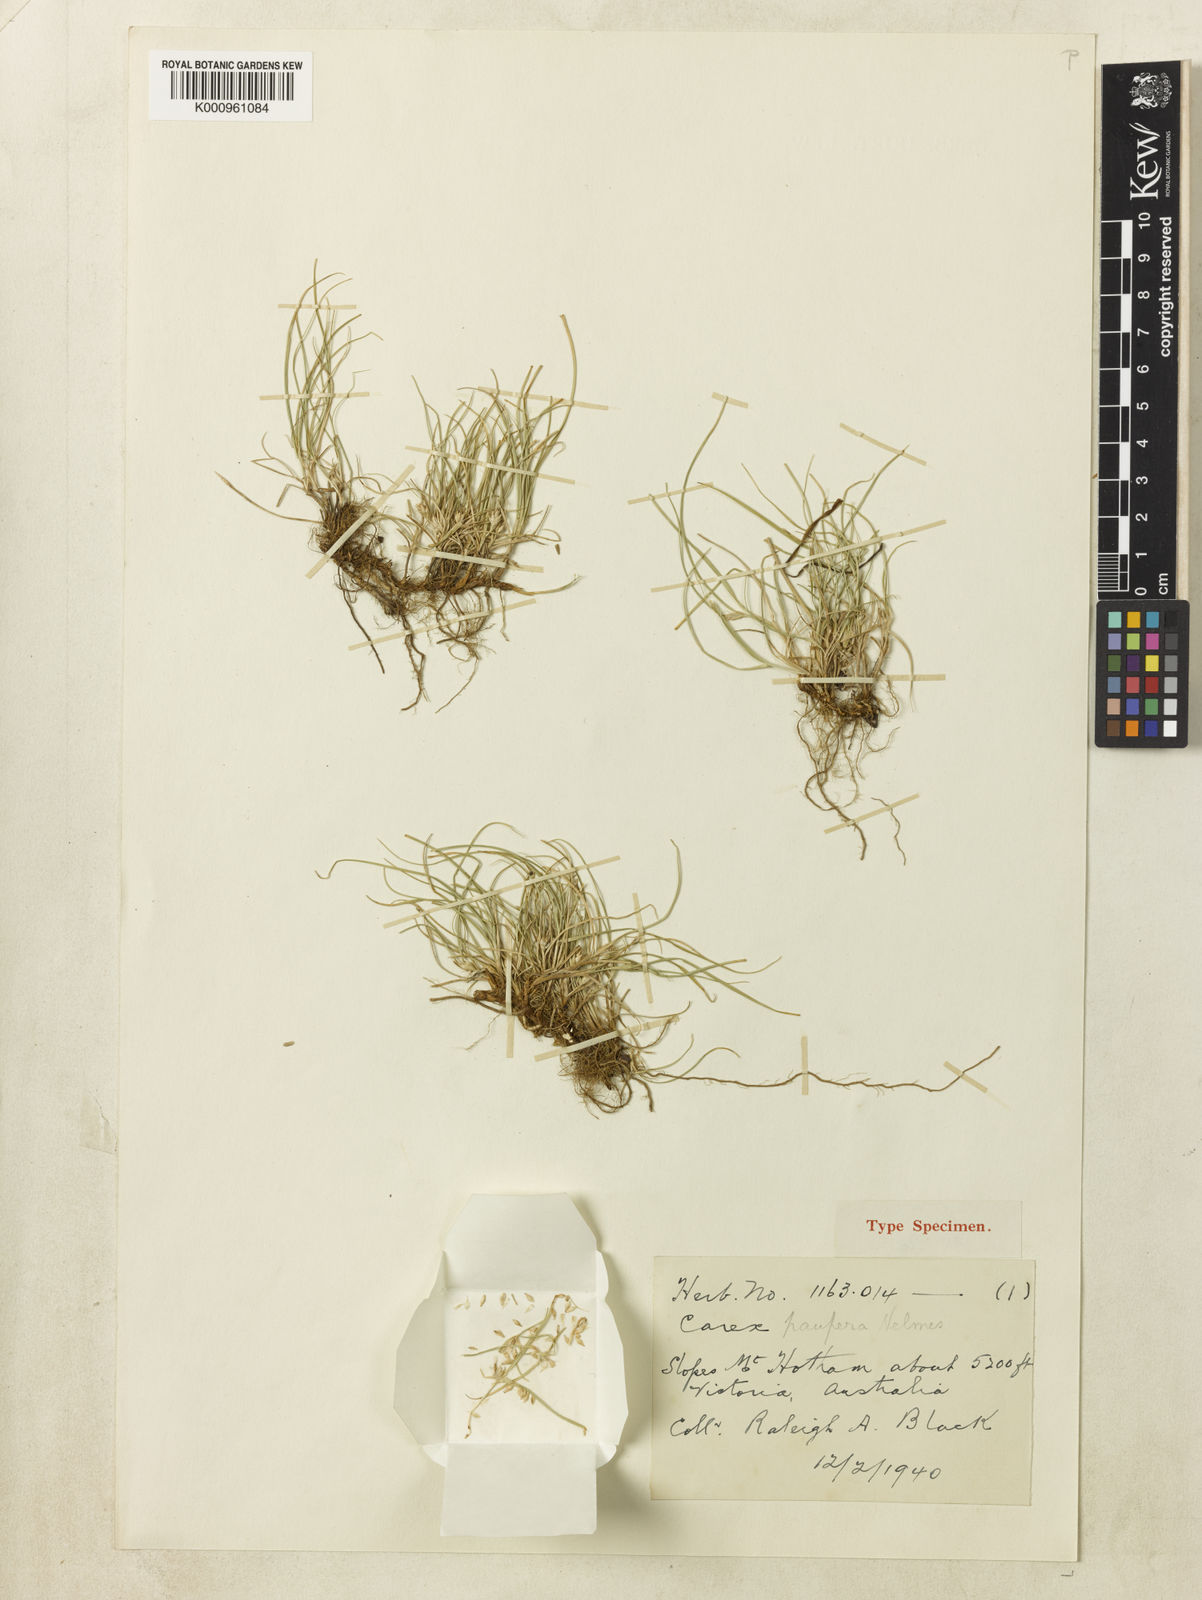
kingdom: Plantae
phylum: Tracheophyta
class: Liliopsida
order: Poales
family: Cyperaceae
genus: Carex
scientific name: Carex inversa
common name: Knob sedge
